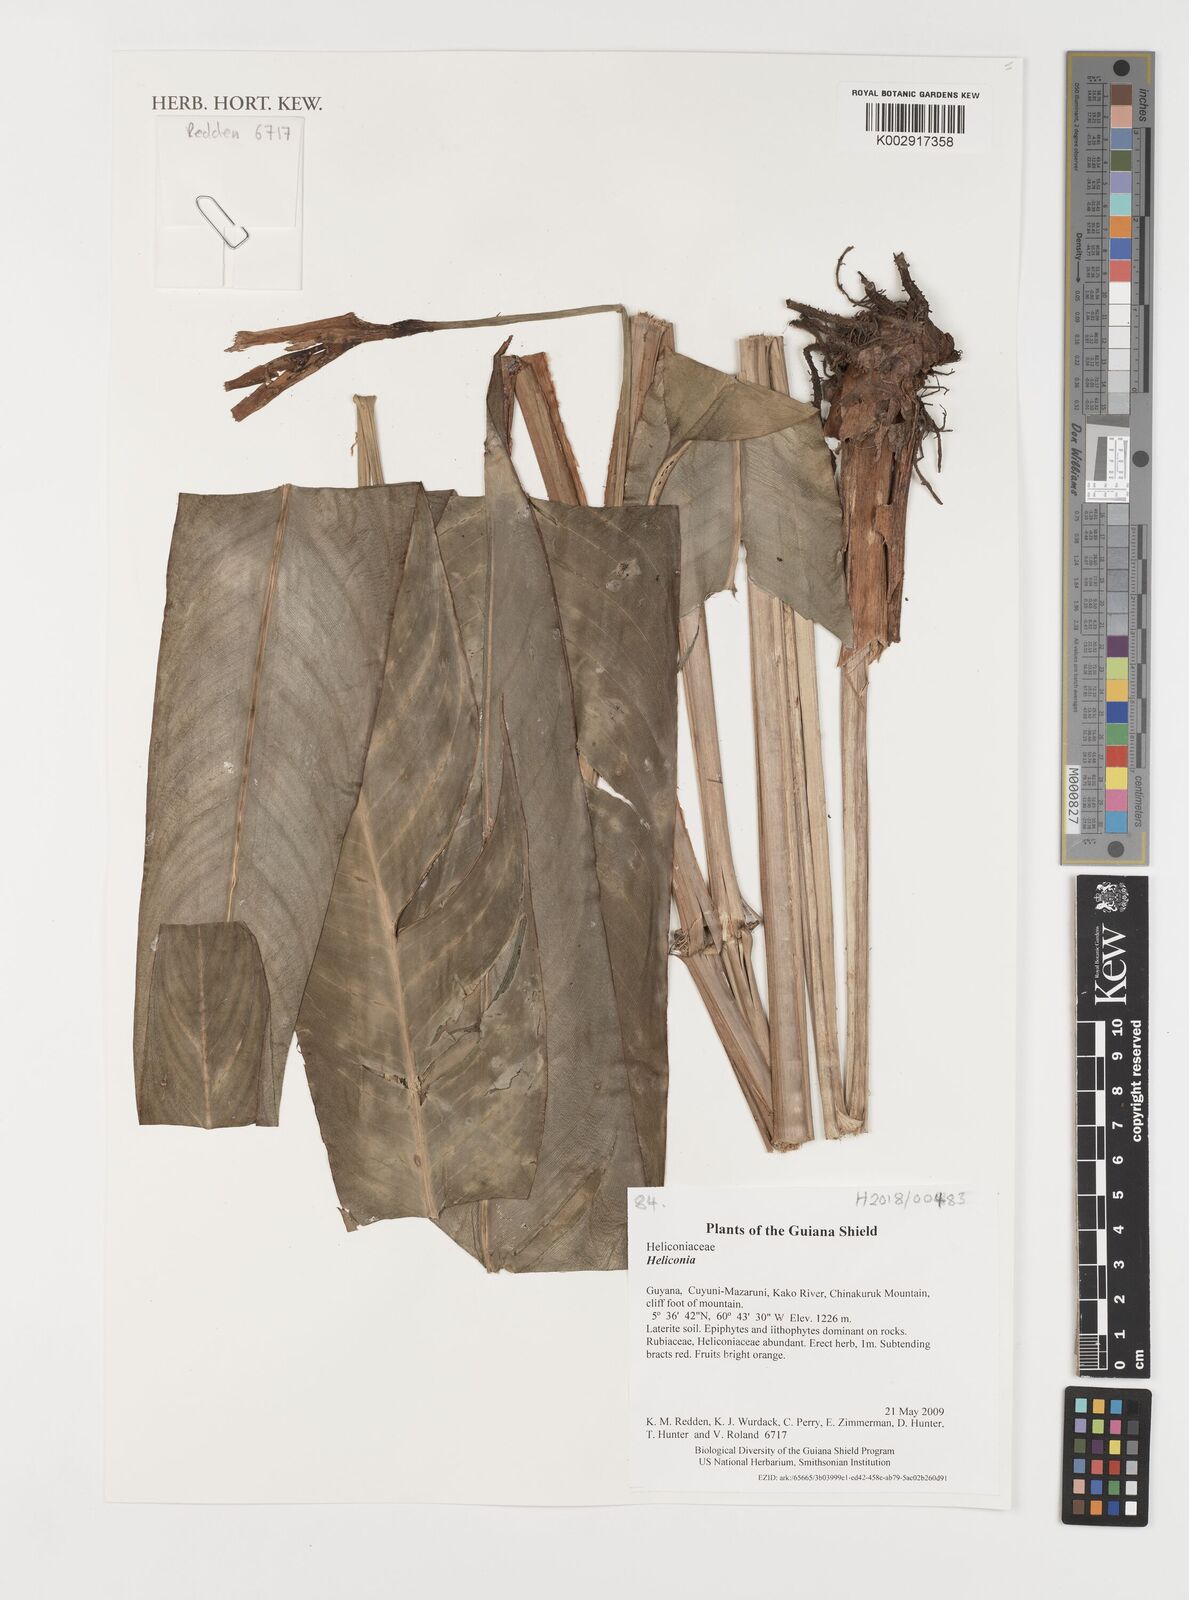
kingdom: Plantae
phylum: Tracheophyta
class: Liliopsida
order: Zingiberales
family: Heliconiaceae
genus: Heliconia
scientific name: Heliconia
